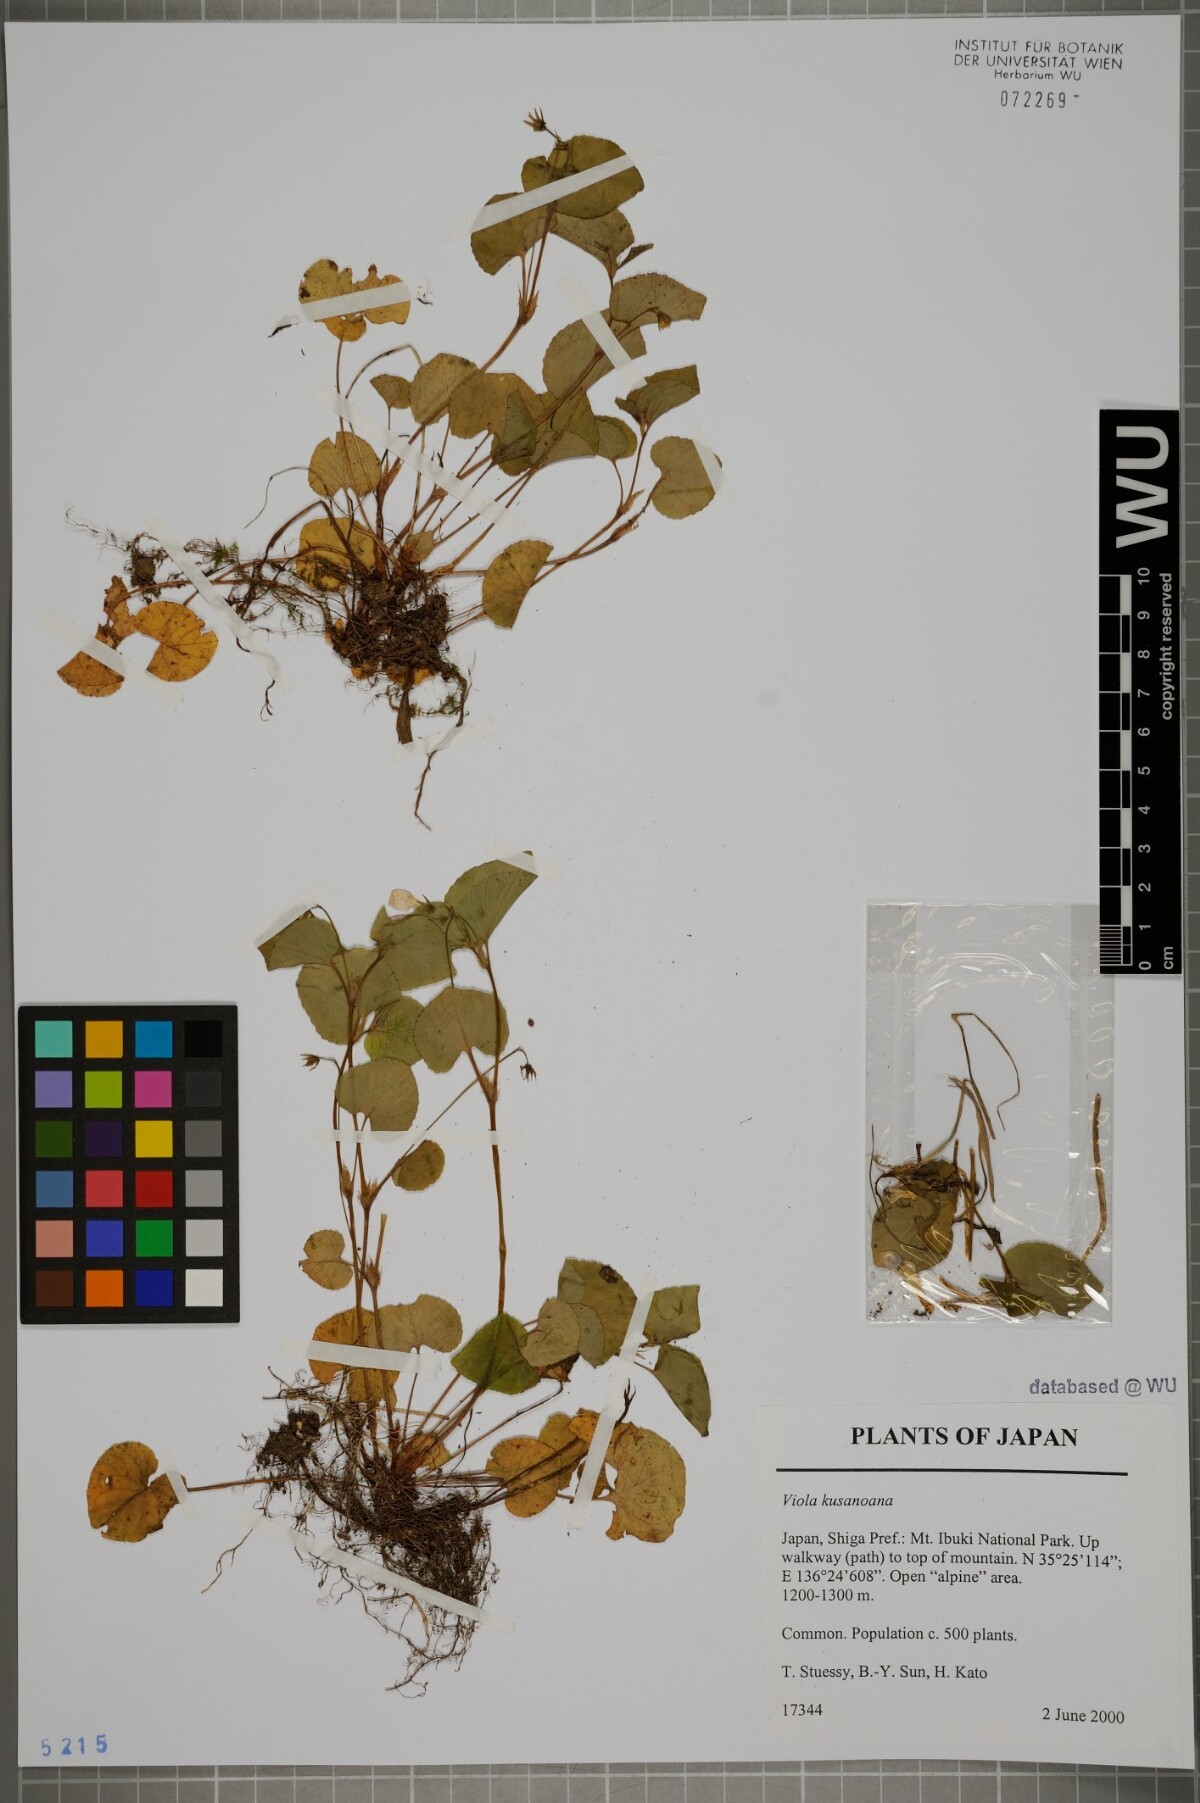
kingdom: Plantae
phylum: Tracheophyta
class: Magnoliopsida
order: Malpighiales
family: Violaceae
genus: Viola
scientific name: Viola kusanoana
